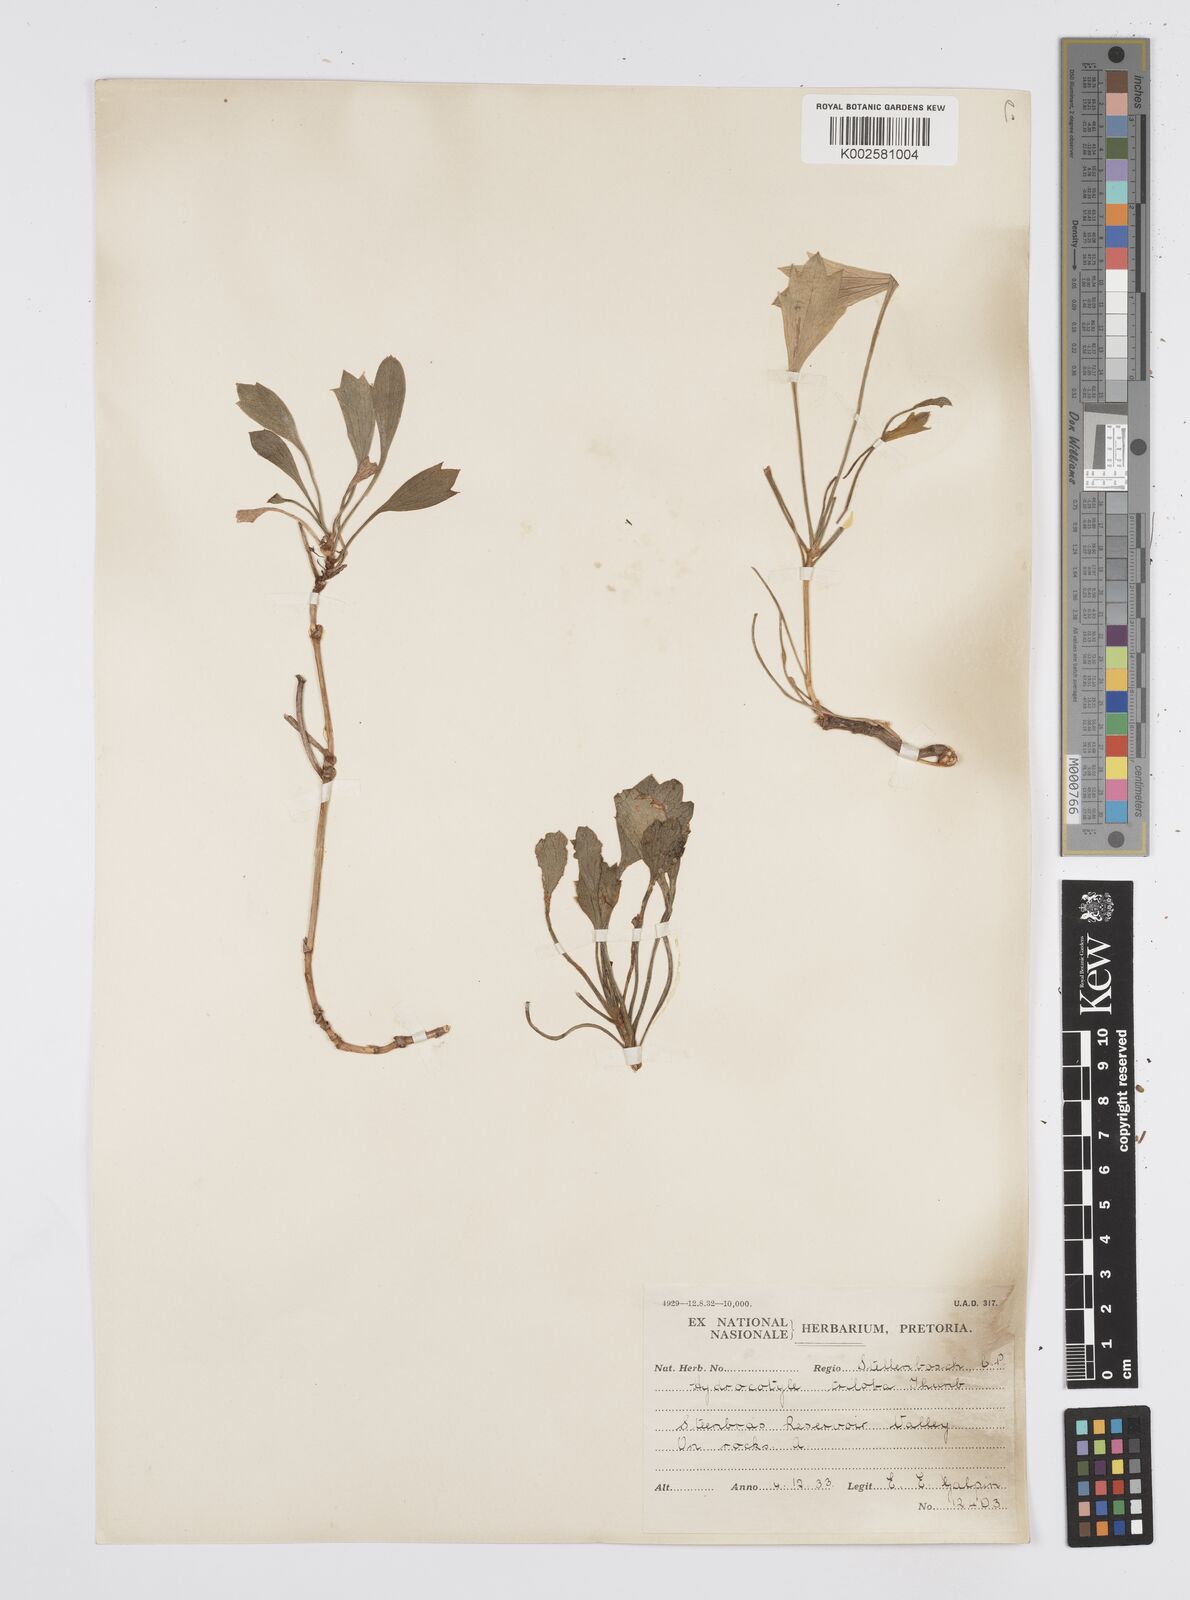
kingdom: Plantae
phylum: Tracheophyta
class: Magnoliopsida
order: Apiales
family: Apiaceae
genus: Centella
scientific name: Centella triloba
